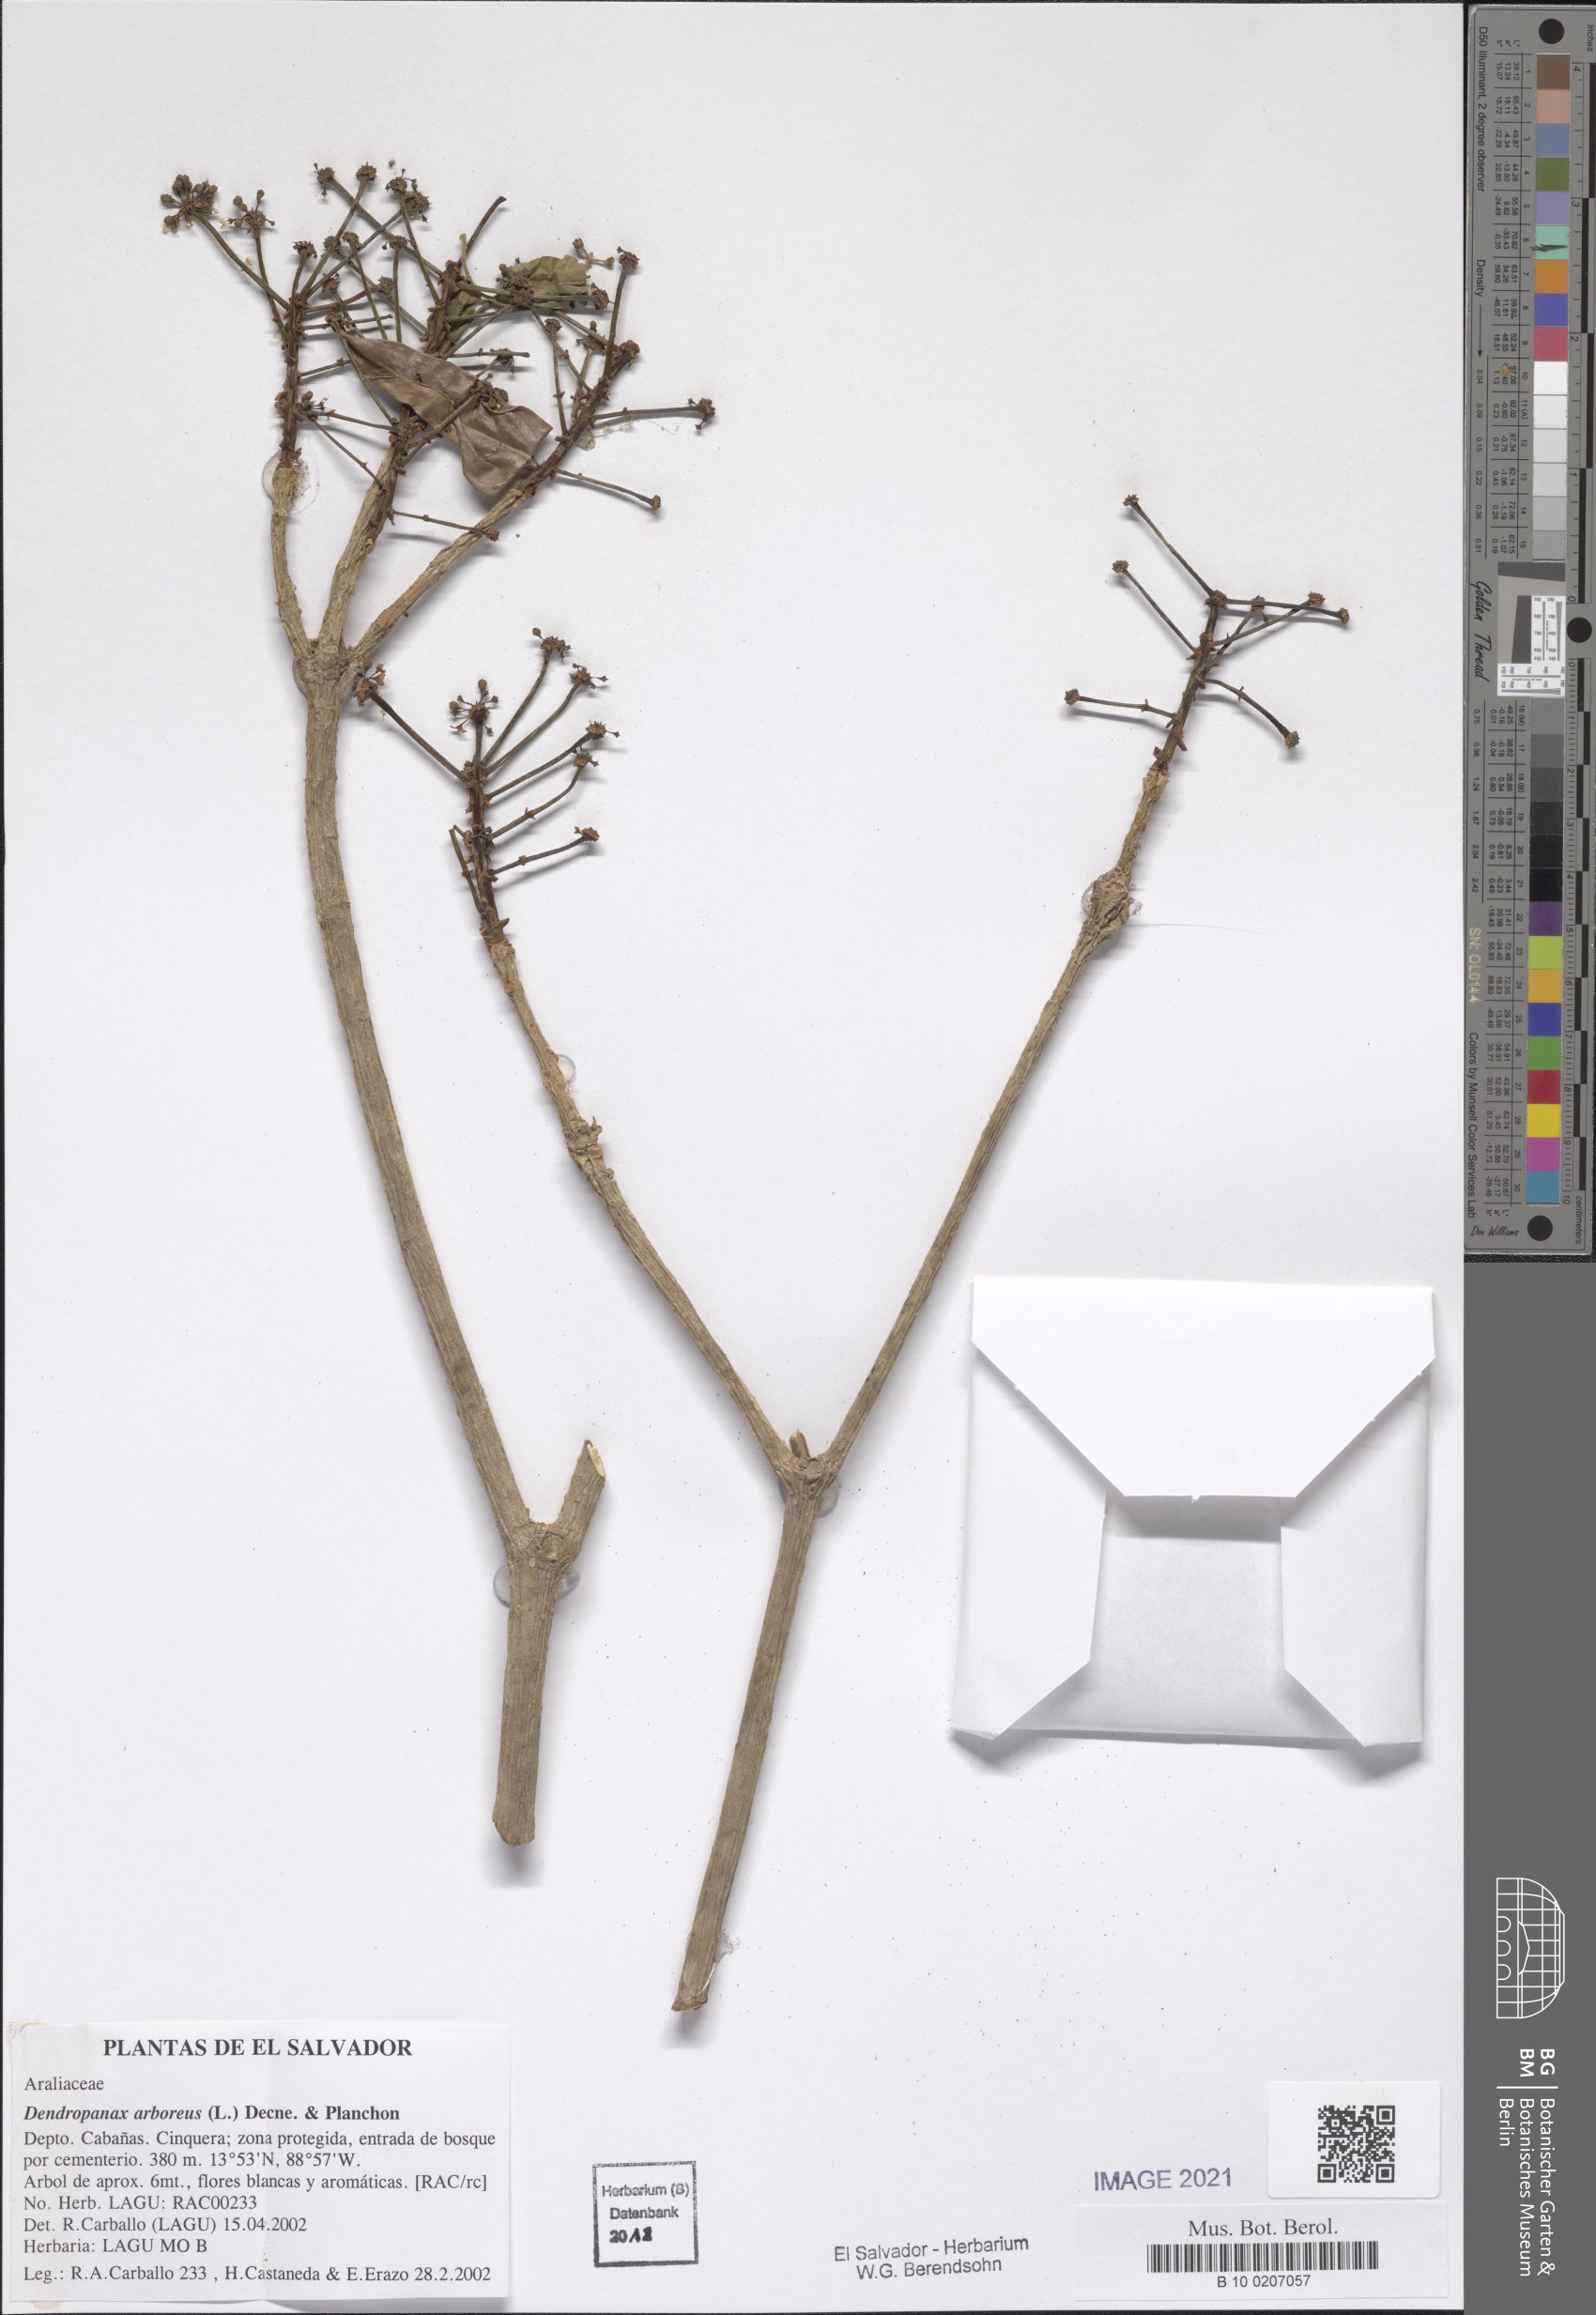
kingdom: Plantae
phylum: Tracheophyta
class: Magnoliopsida
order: Apiales
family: Araliaceae
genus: Dendropanax
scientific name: Dendropanax arboreus
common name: Potato-wood
